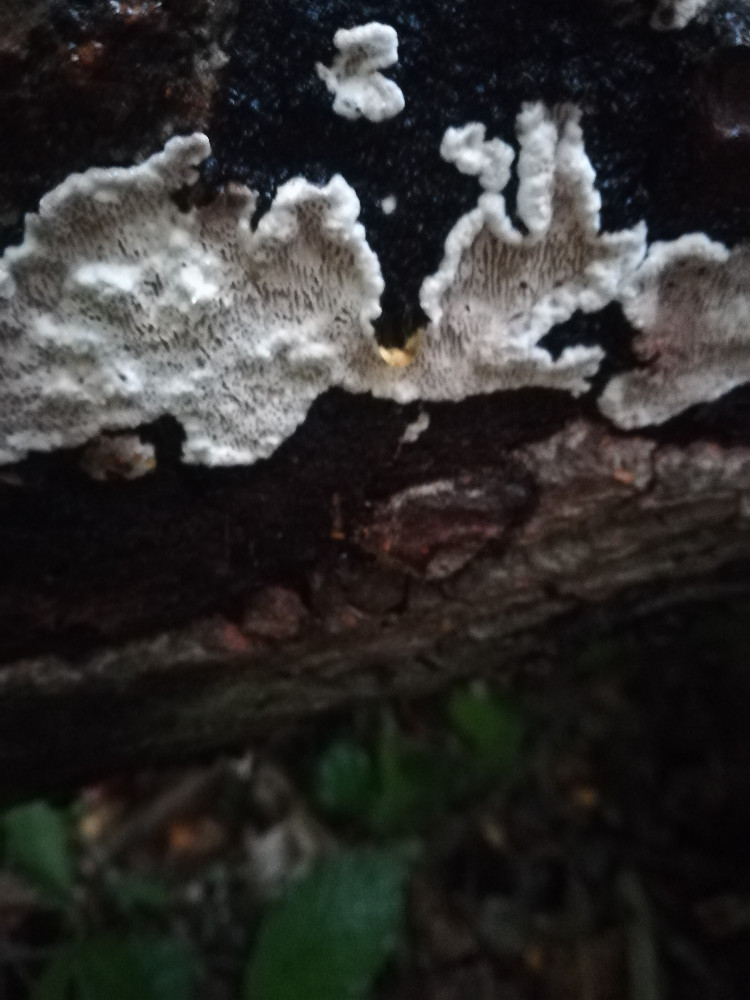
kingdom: Fungi
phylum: Basidiomycota
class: Agaricomycetes
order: Polyporales
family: Polyporaceae
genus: Podofomes
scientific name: Podofomes mollis
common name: blød begporesvamp
